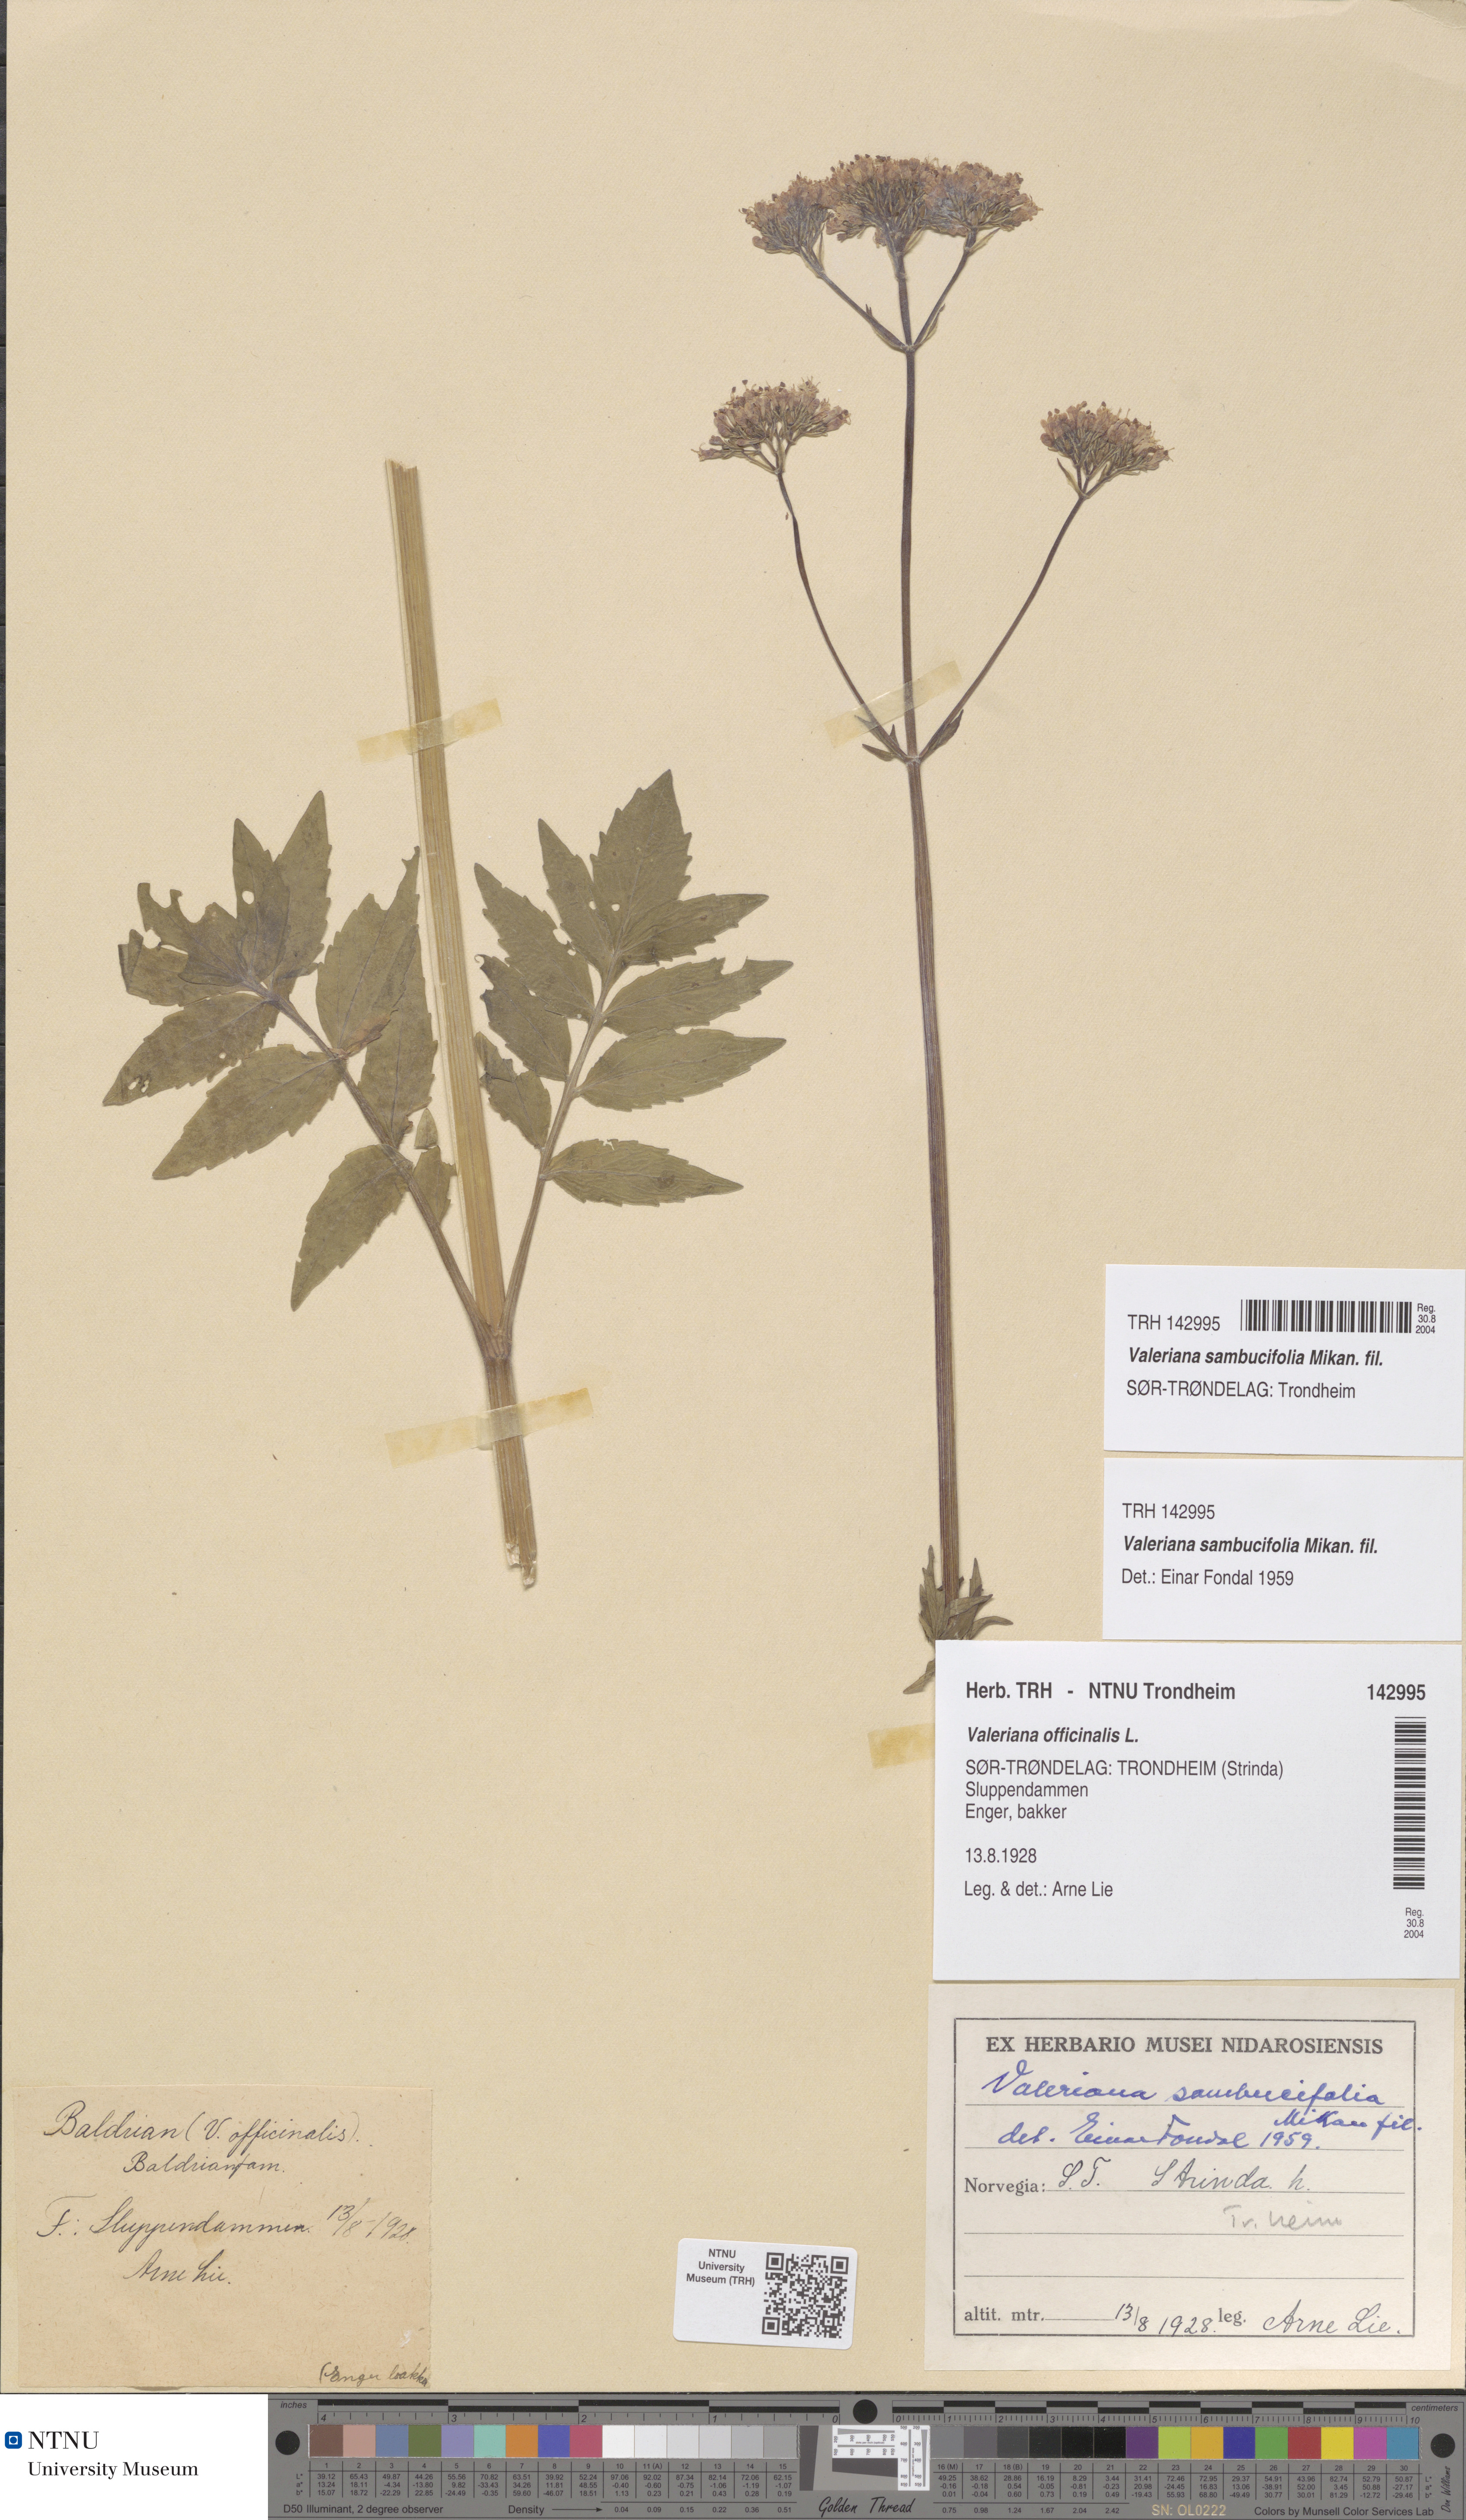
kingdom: Plantae
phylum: Tracheophyta
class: Magnoliopsida
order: Dipsacales
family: Caprifoliaceae
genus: Valeriana
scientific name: Valeriana excelsa
